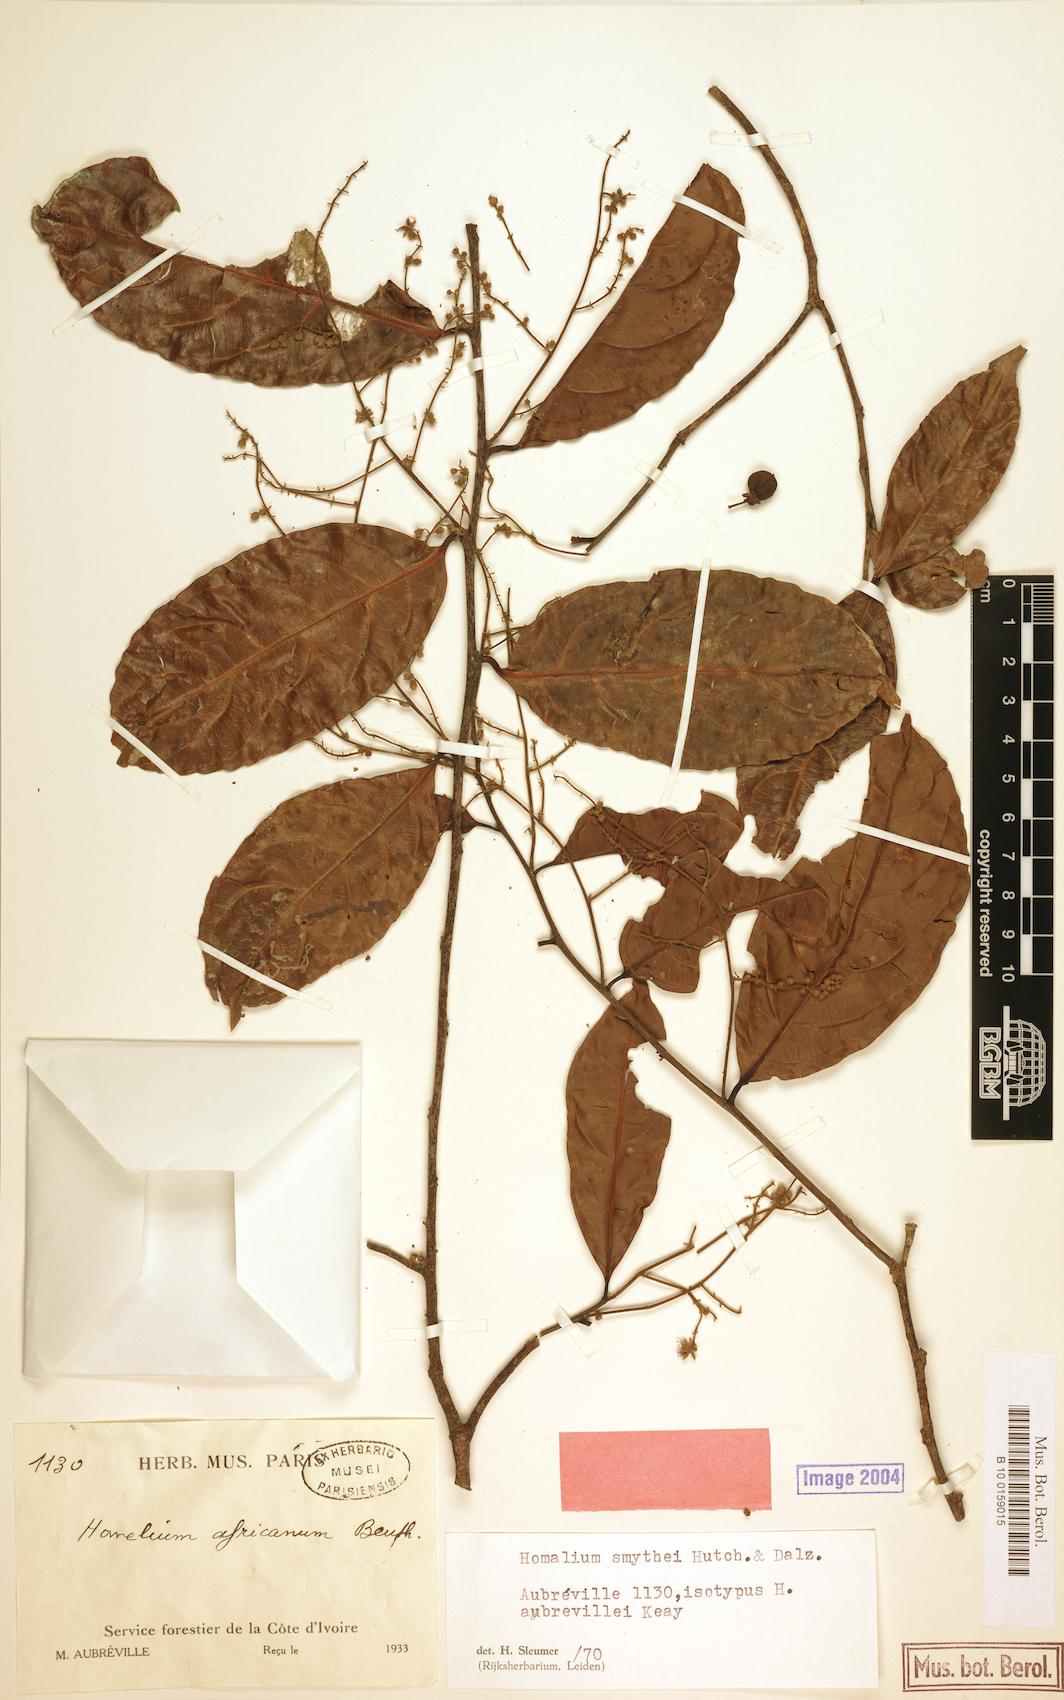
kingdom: Plantae
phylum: Tracheophyta
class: Magnoliopsida
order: Malpighiales
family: Salicaceae
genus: Homalium
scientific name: Homalium smythei
